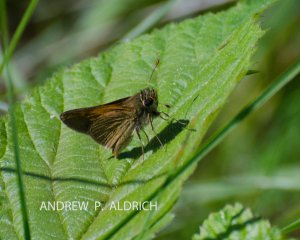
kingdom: Animalia
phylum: Arthropoda
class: Insecta
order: Lepidoptera
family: Hesperiidae
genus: Polites
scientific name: Polites themistocles
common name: Tawny-edged Skipper
